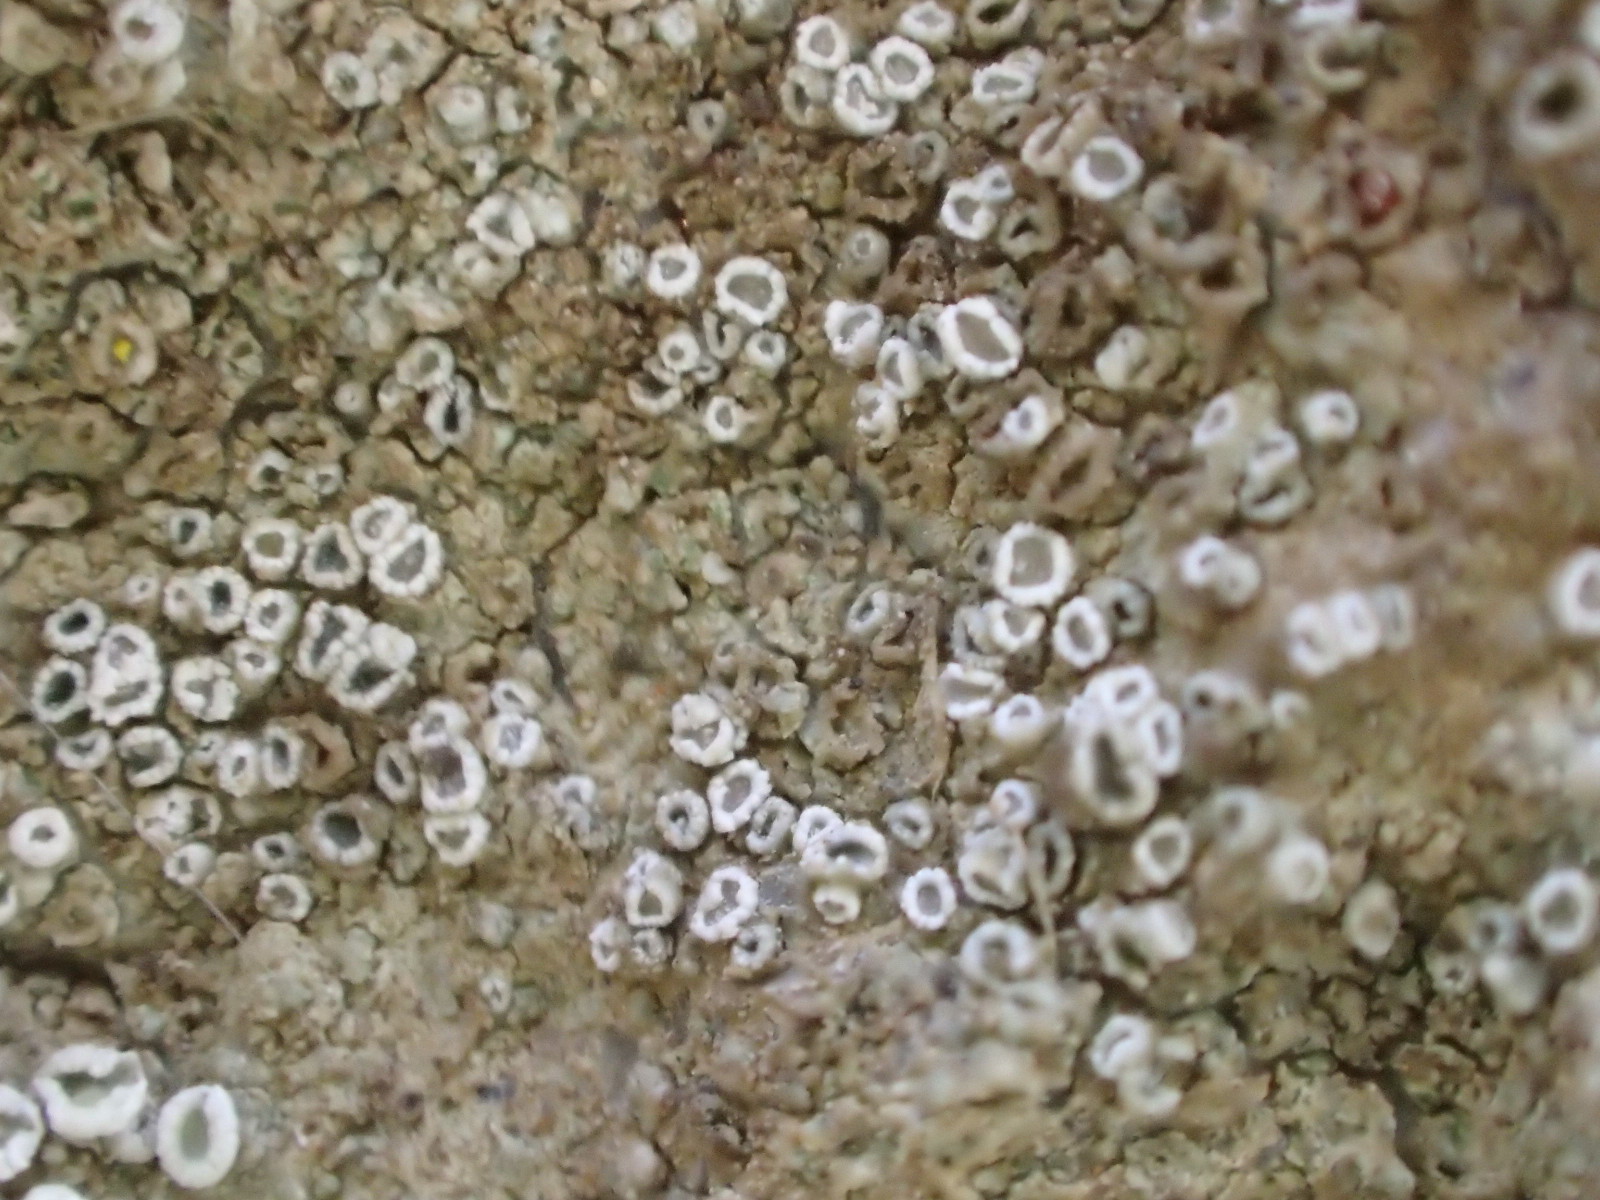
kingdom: Fungi
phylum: Ascomycota
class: Lecanoromycetes
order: Lecanorales
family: Lecanoraceae
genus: Polyozosia
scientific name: Polyozosia dispersa
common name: spredt kantskivelav
